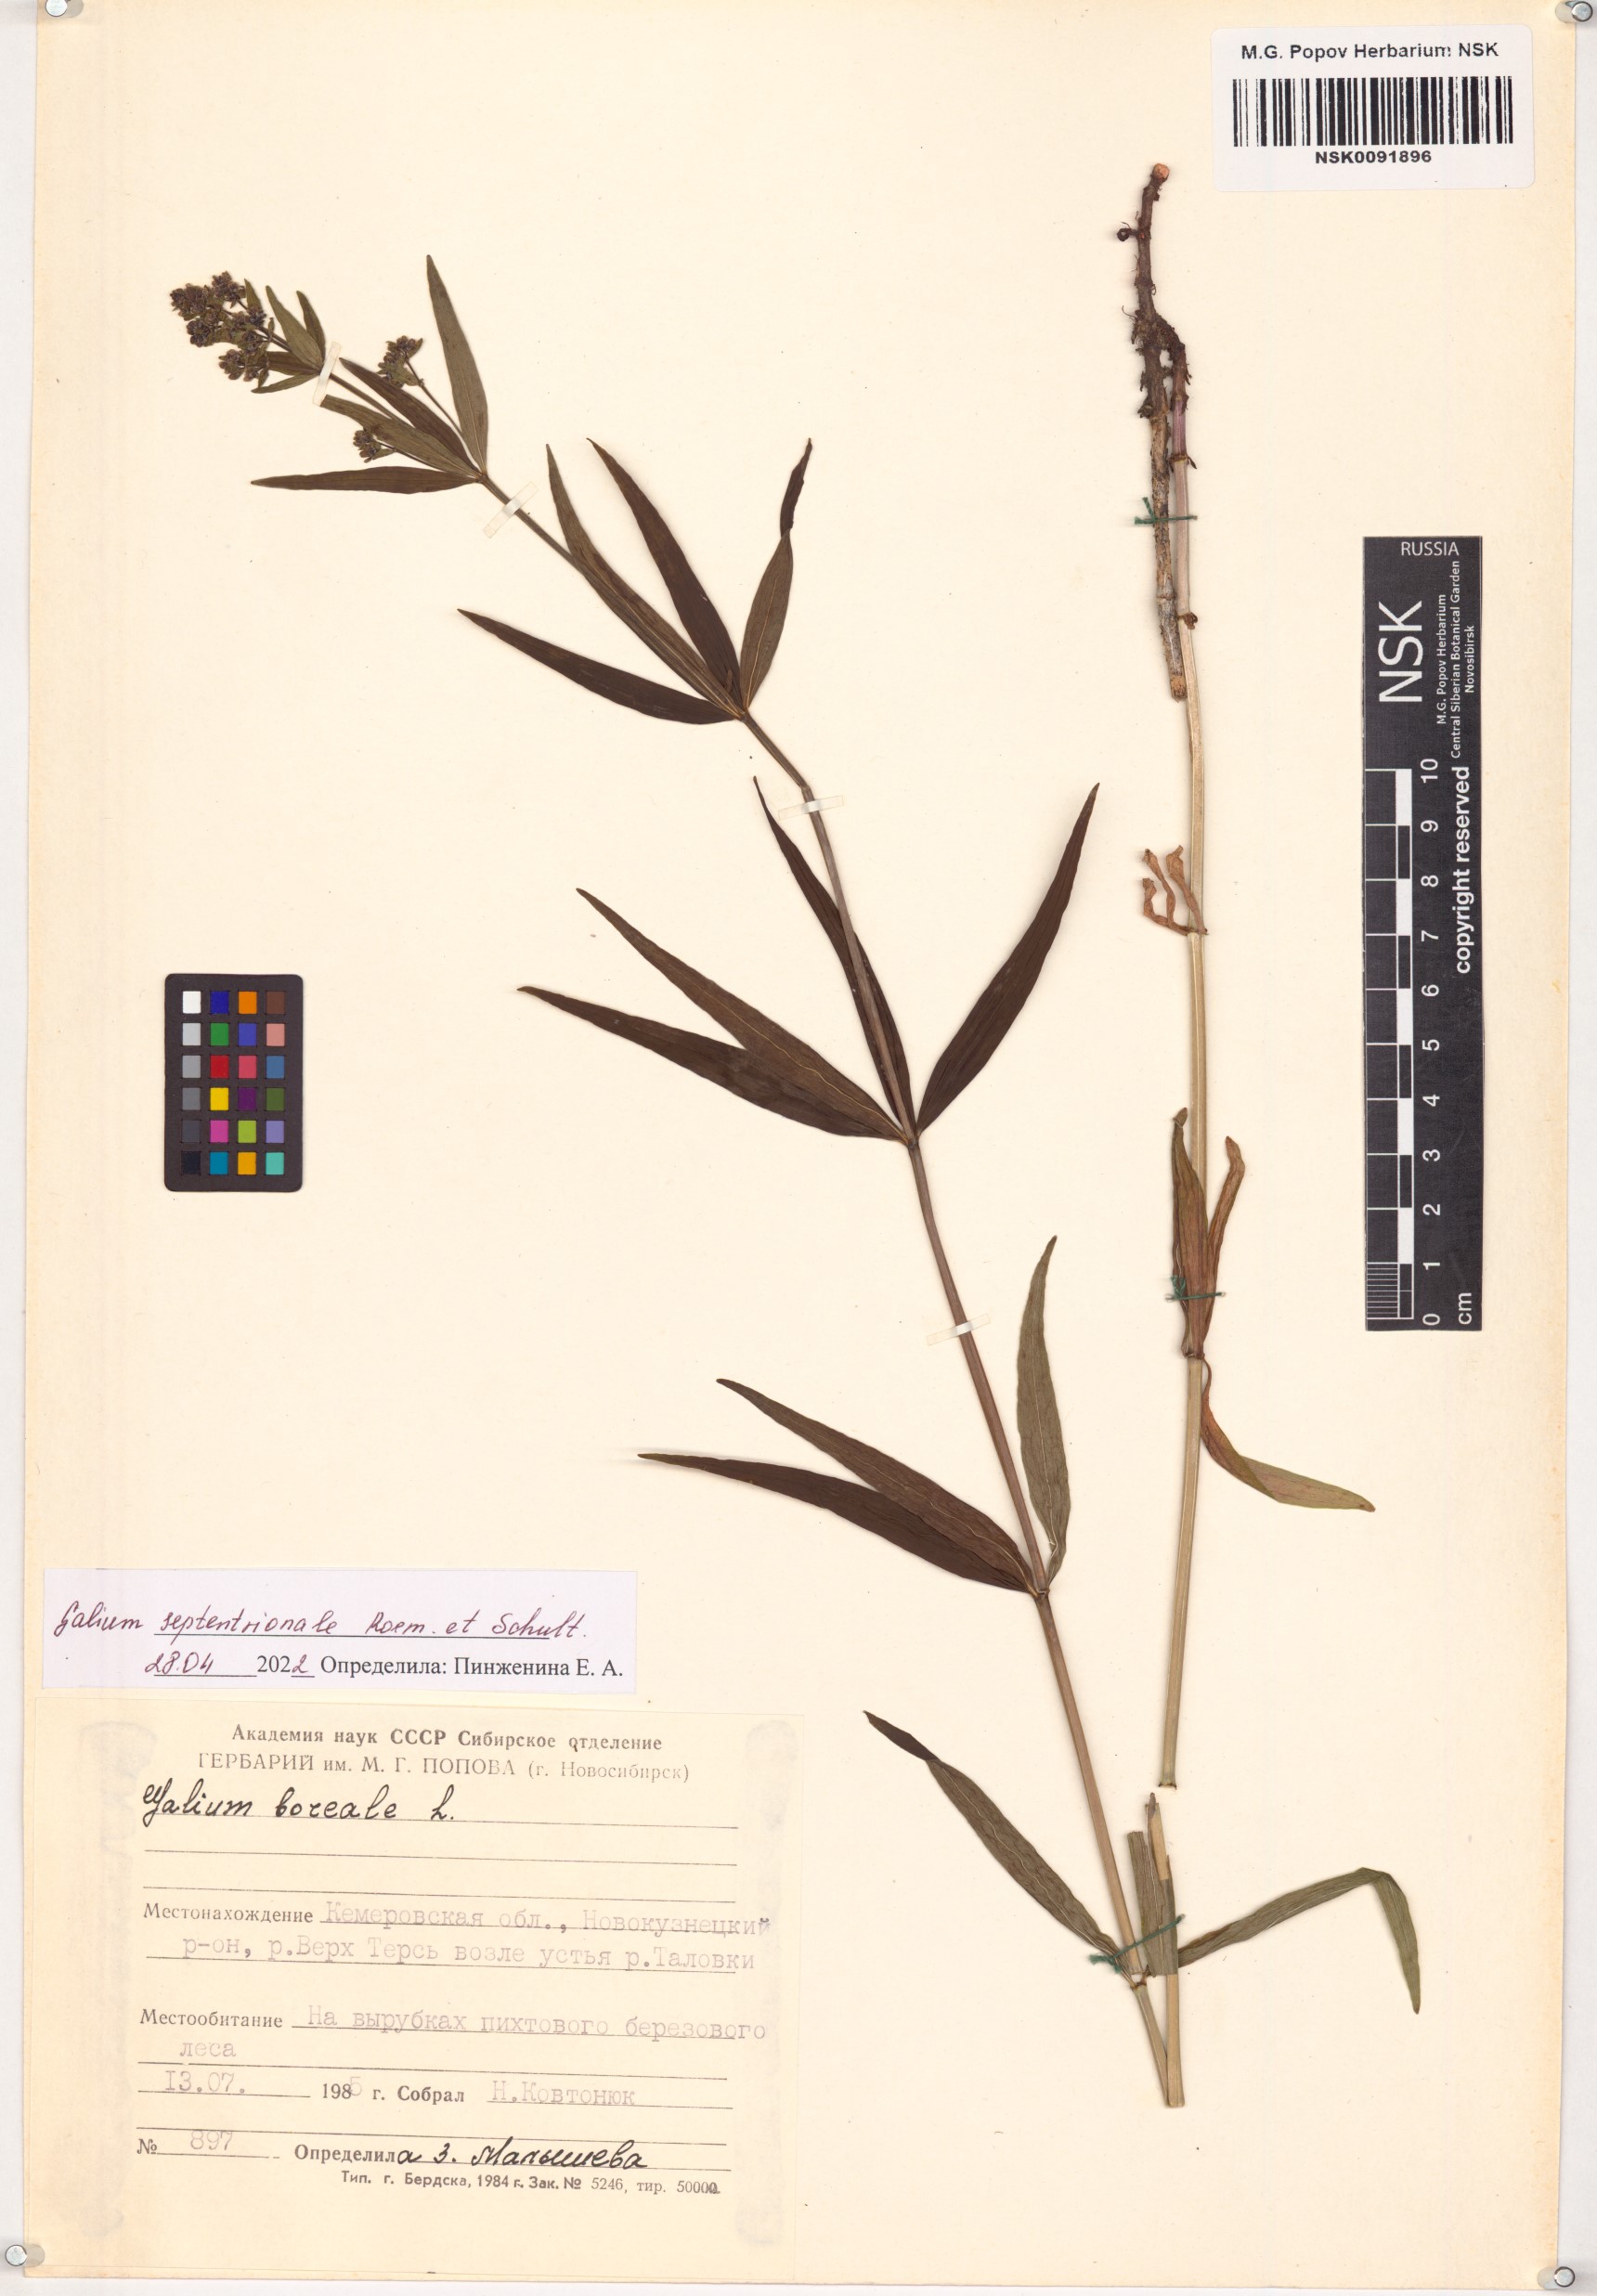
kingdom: Plantae
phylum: Tracheophyta
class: Magnoliopsida
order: Gentianales
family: Rubiaceae
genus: Galium
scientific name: Galium boreale
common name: Northern bedstraw
